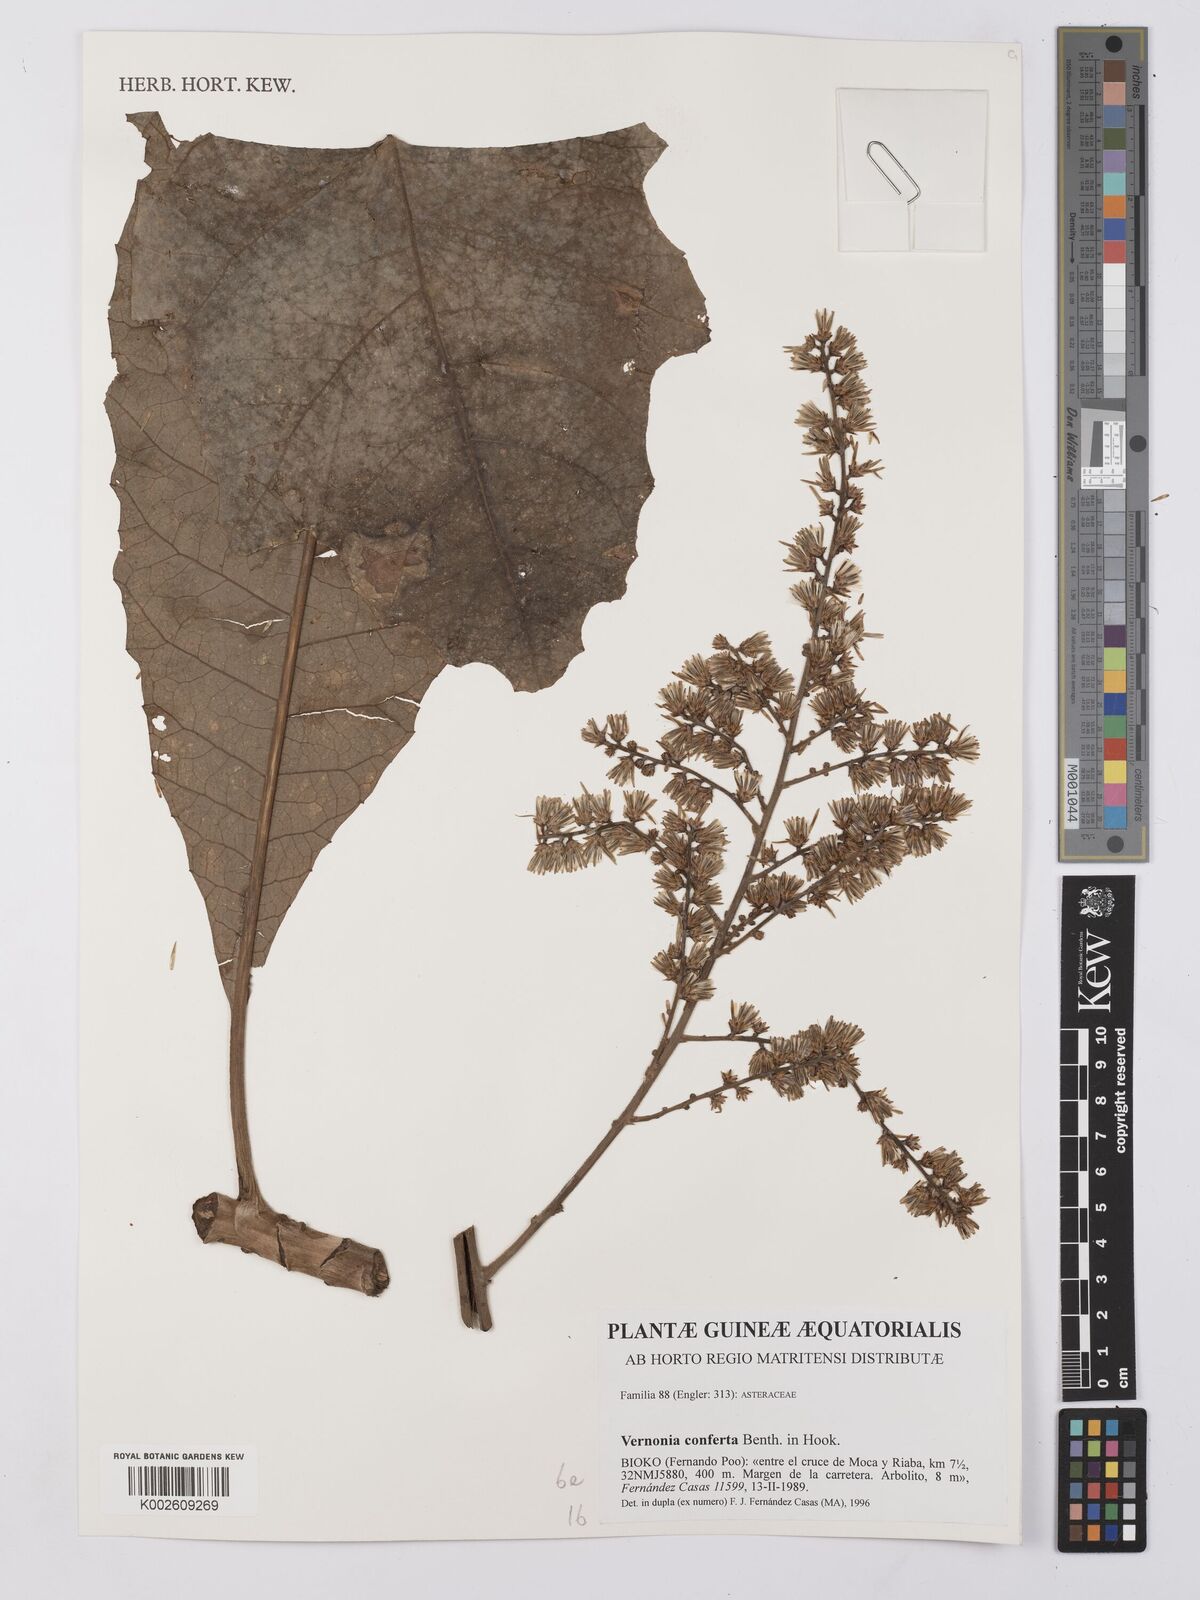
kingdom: Plantae
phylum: Tracheophyta
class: Magnoliopsida
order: Asterales
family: Asteraceae
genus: Monosis
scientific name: Monosis conferta
